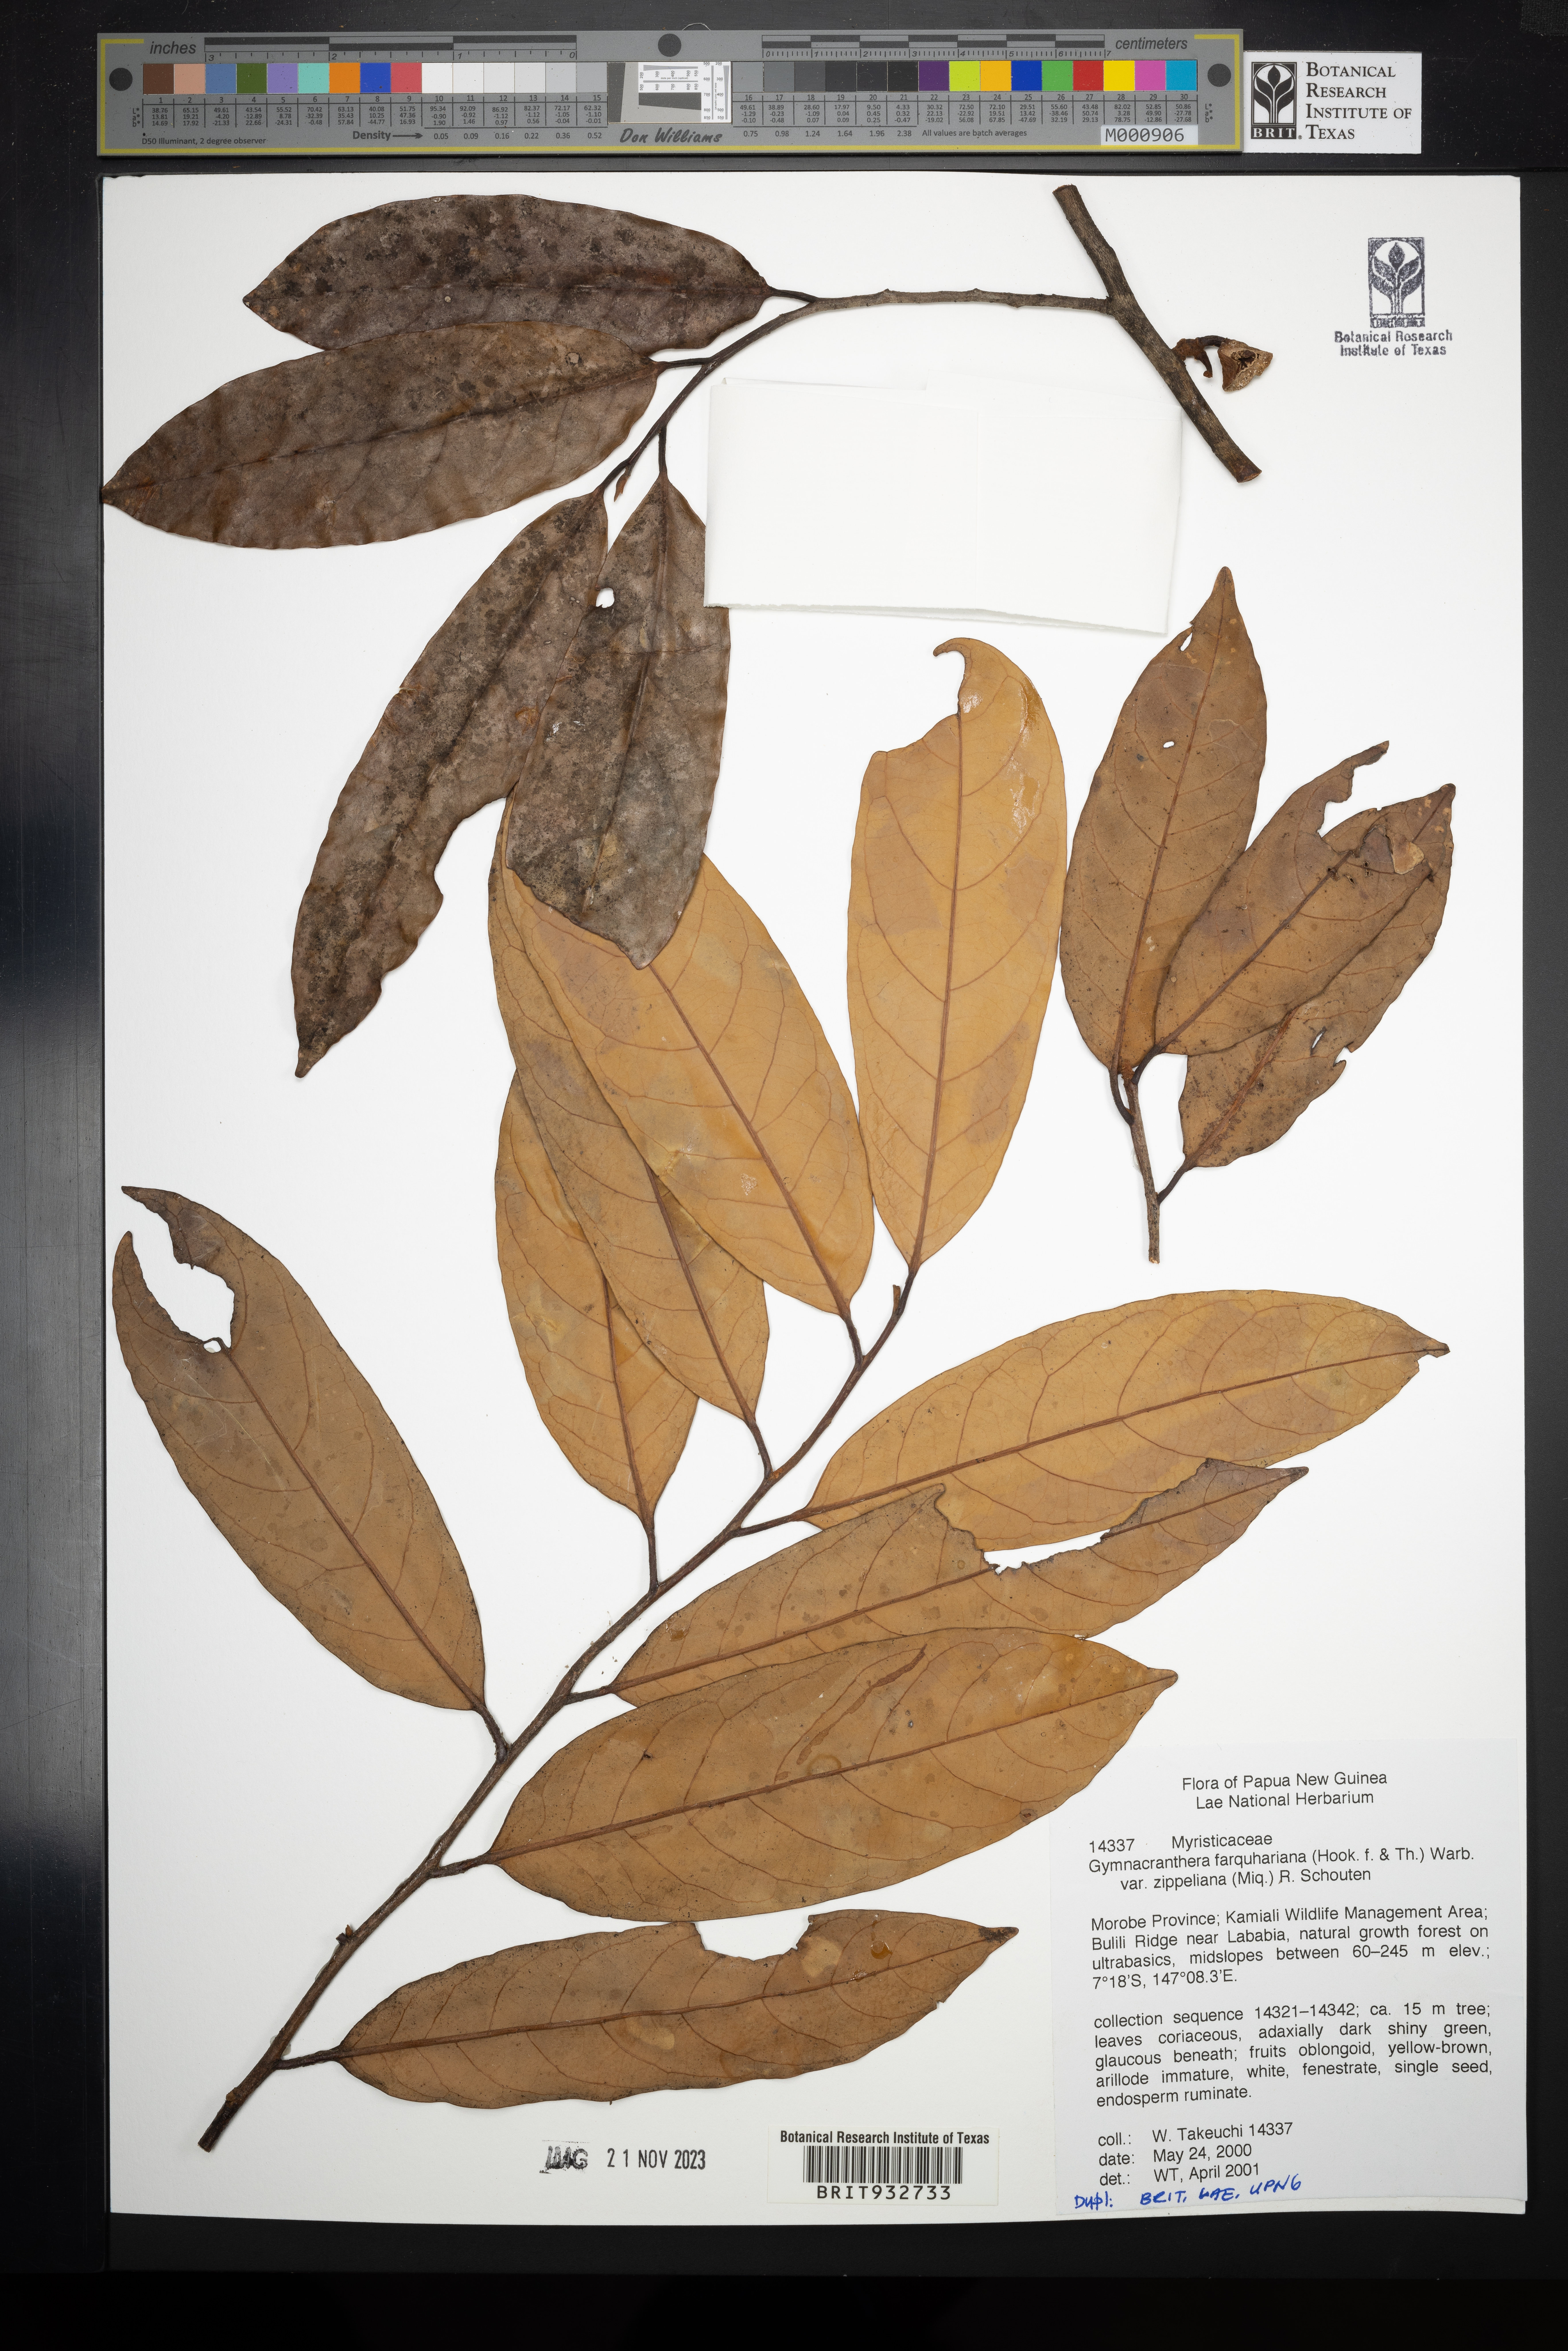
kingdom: Plantae
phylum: Tracheophyta
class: Magnoliopsida
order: Magnoliales
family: Myristicaceae
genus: Gymnacranthera
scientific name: Gymnacranthera
